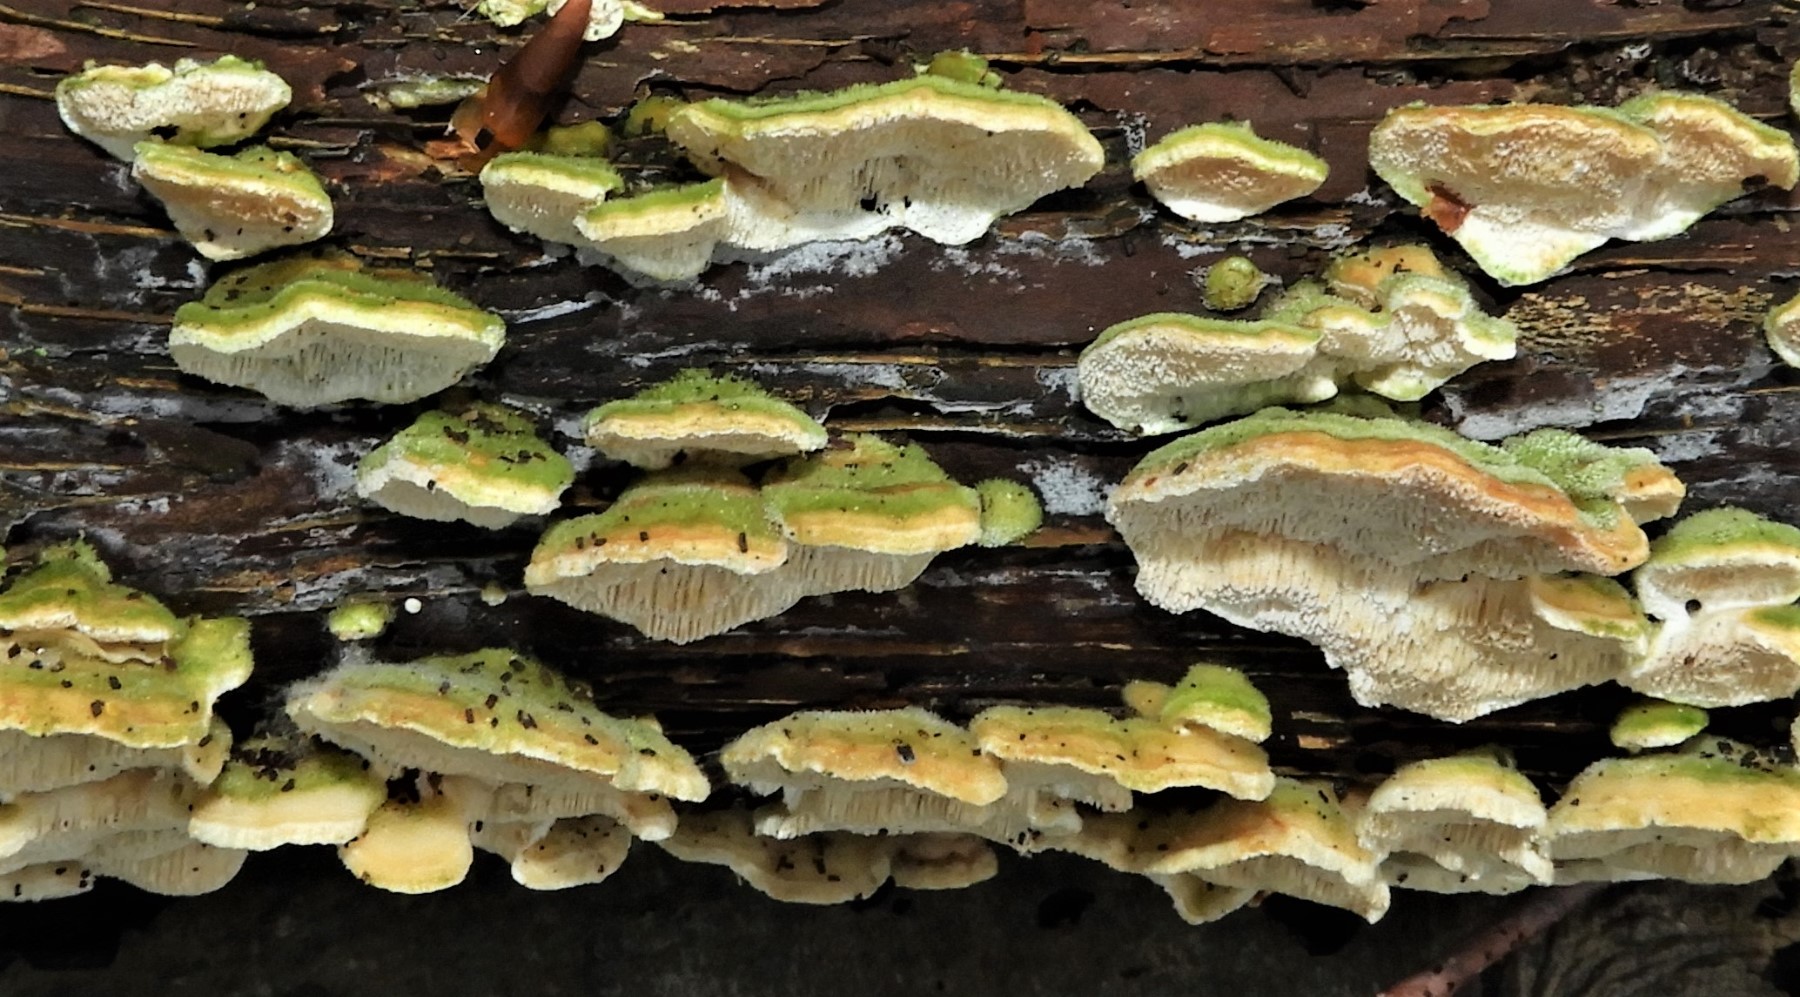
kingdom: Fungi
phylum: Basidiomycota
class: Agaricomycetes
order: Polyporales
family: Polyporaceae
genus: Trametes
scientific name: Trametes hirsuta
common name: håret læderporesvamp
